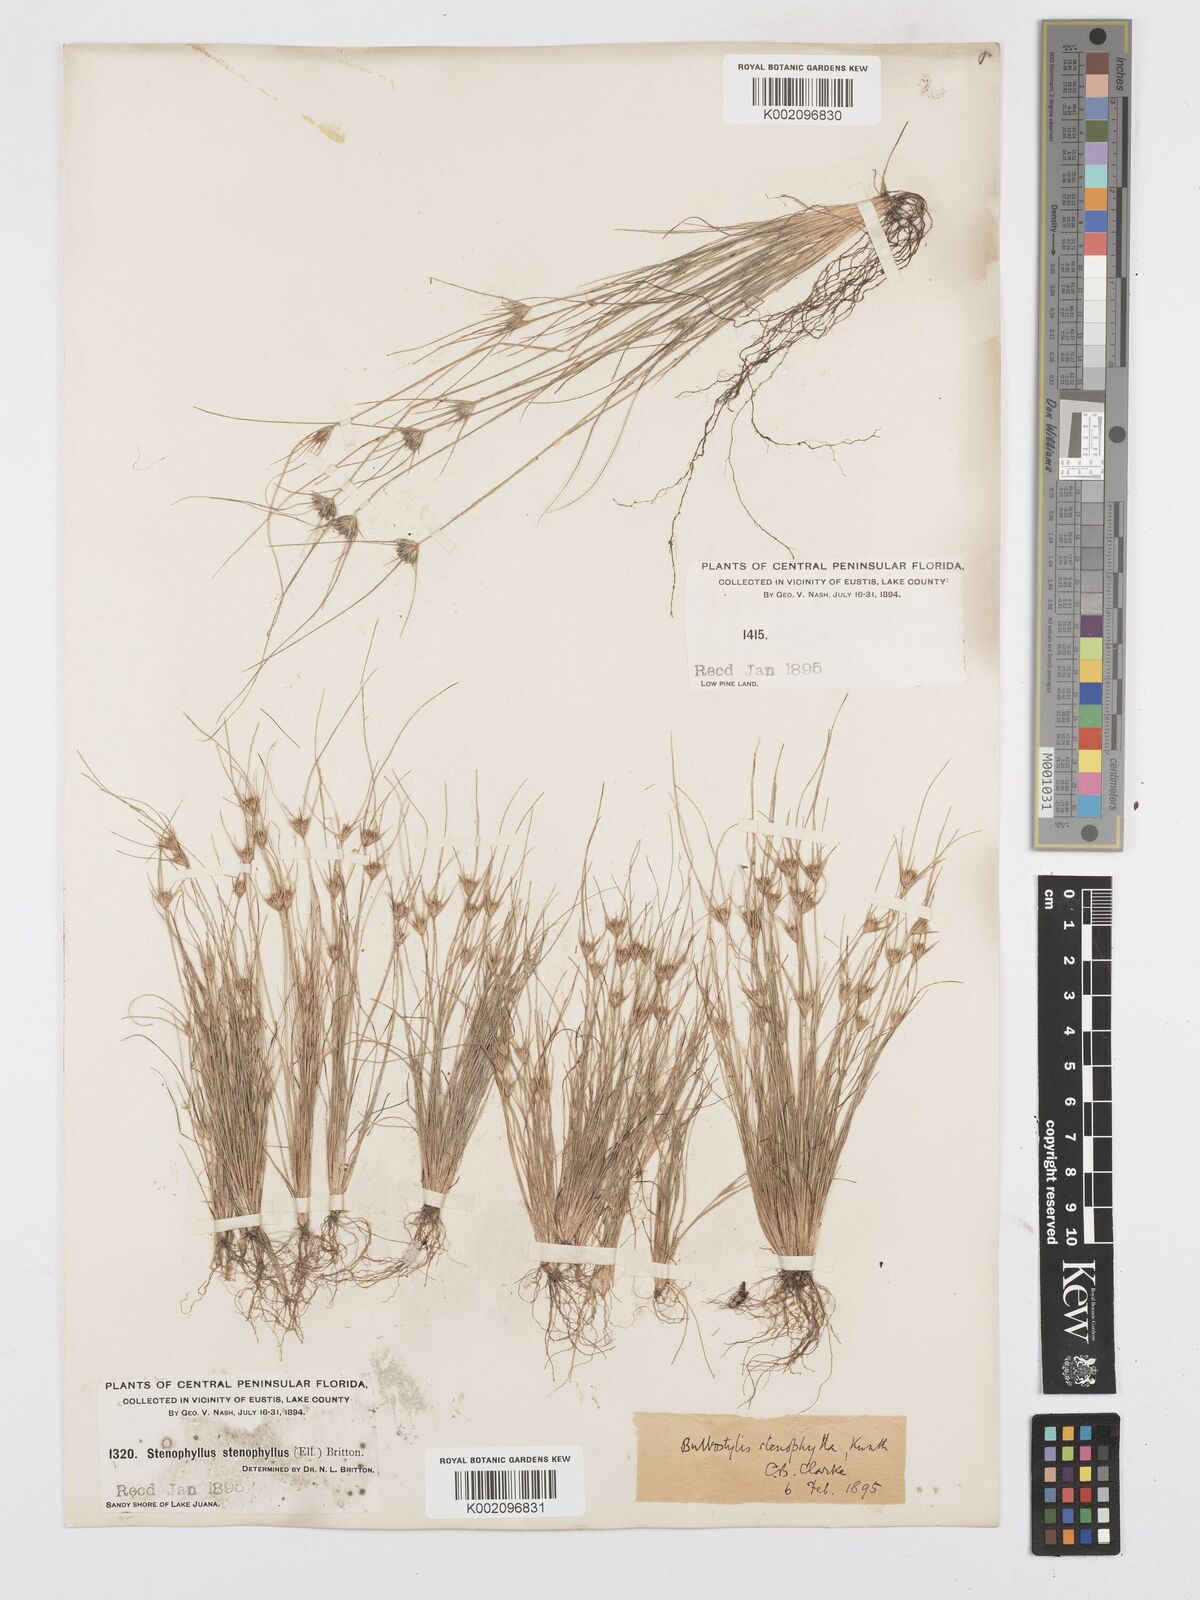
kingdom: Plantae
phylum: Tracheophyta
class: Liliopsida
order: Poales
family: Cyperaceae
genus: Bulbostylis
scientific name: Bulbostylis rarissima
